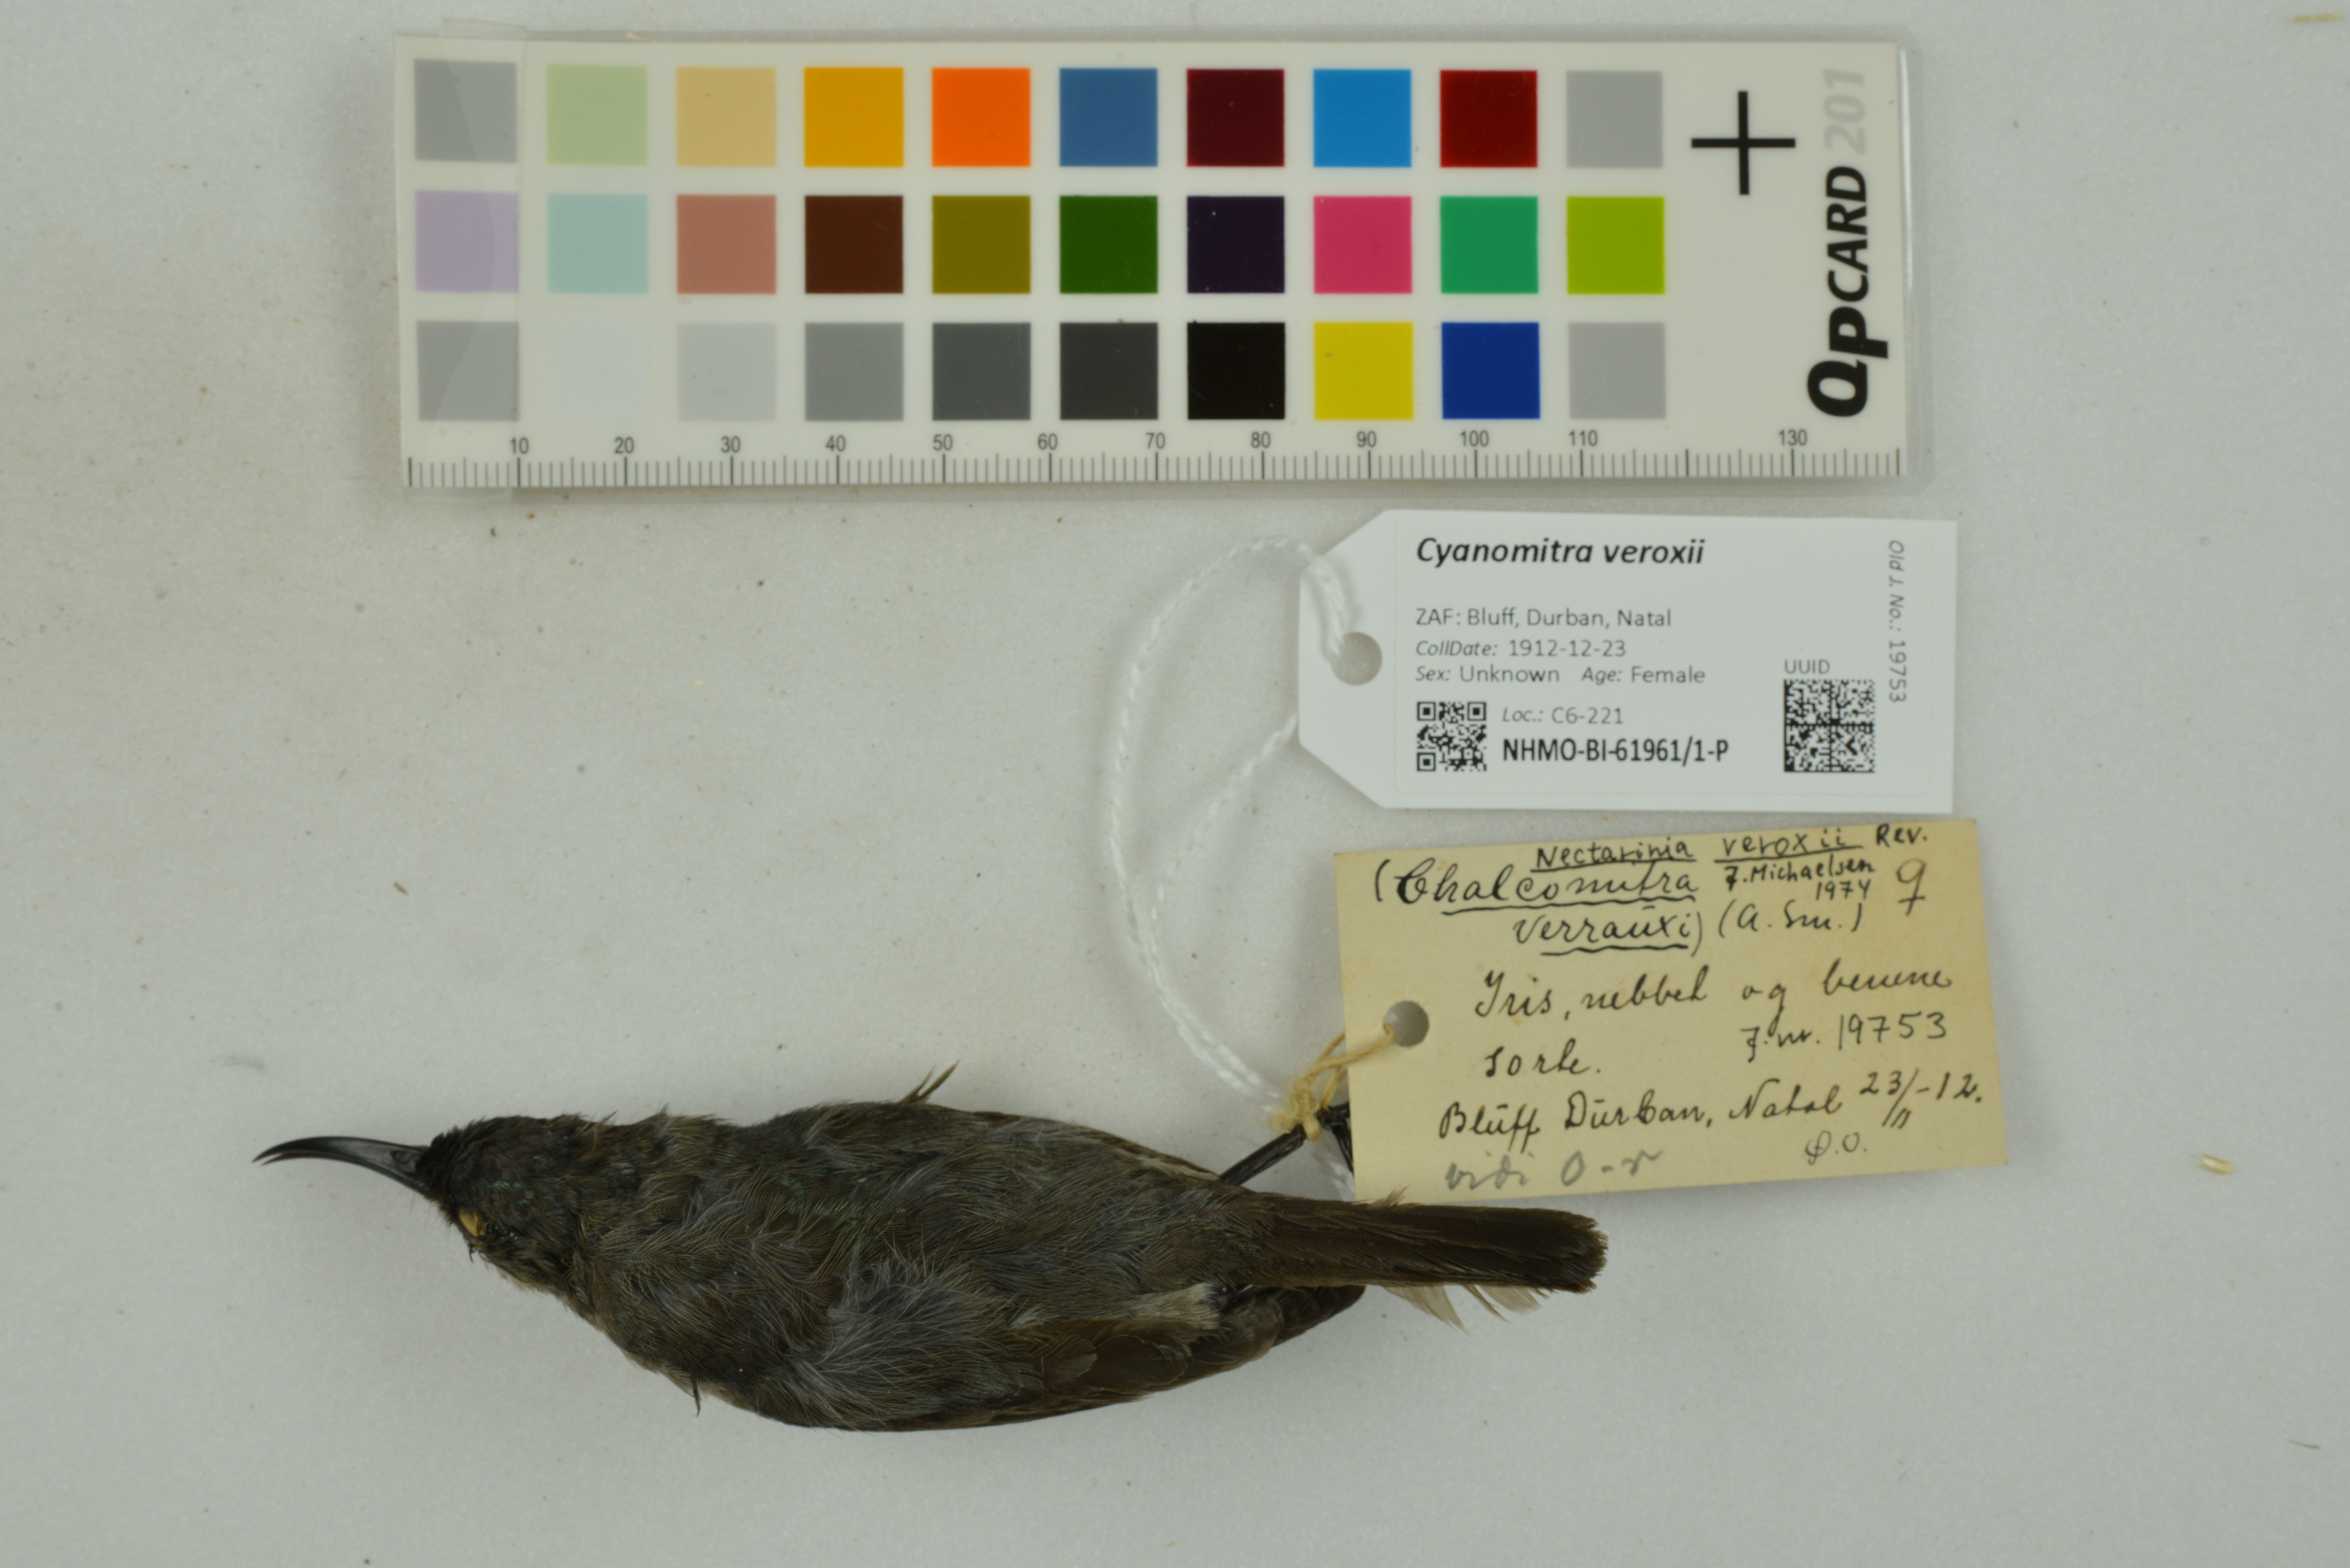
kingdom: Animalia
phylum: Chordata
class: Aves
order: Passeriformes
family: Nectariniidae
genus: Cyanomitra
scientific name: Cyanomitra veroxii
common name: Grey sunbird
